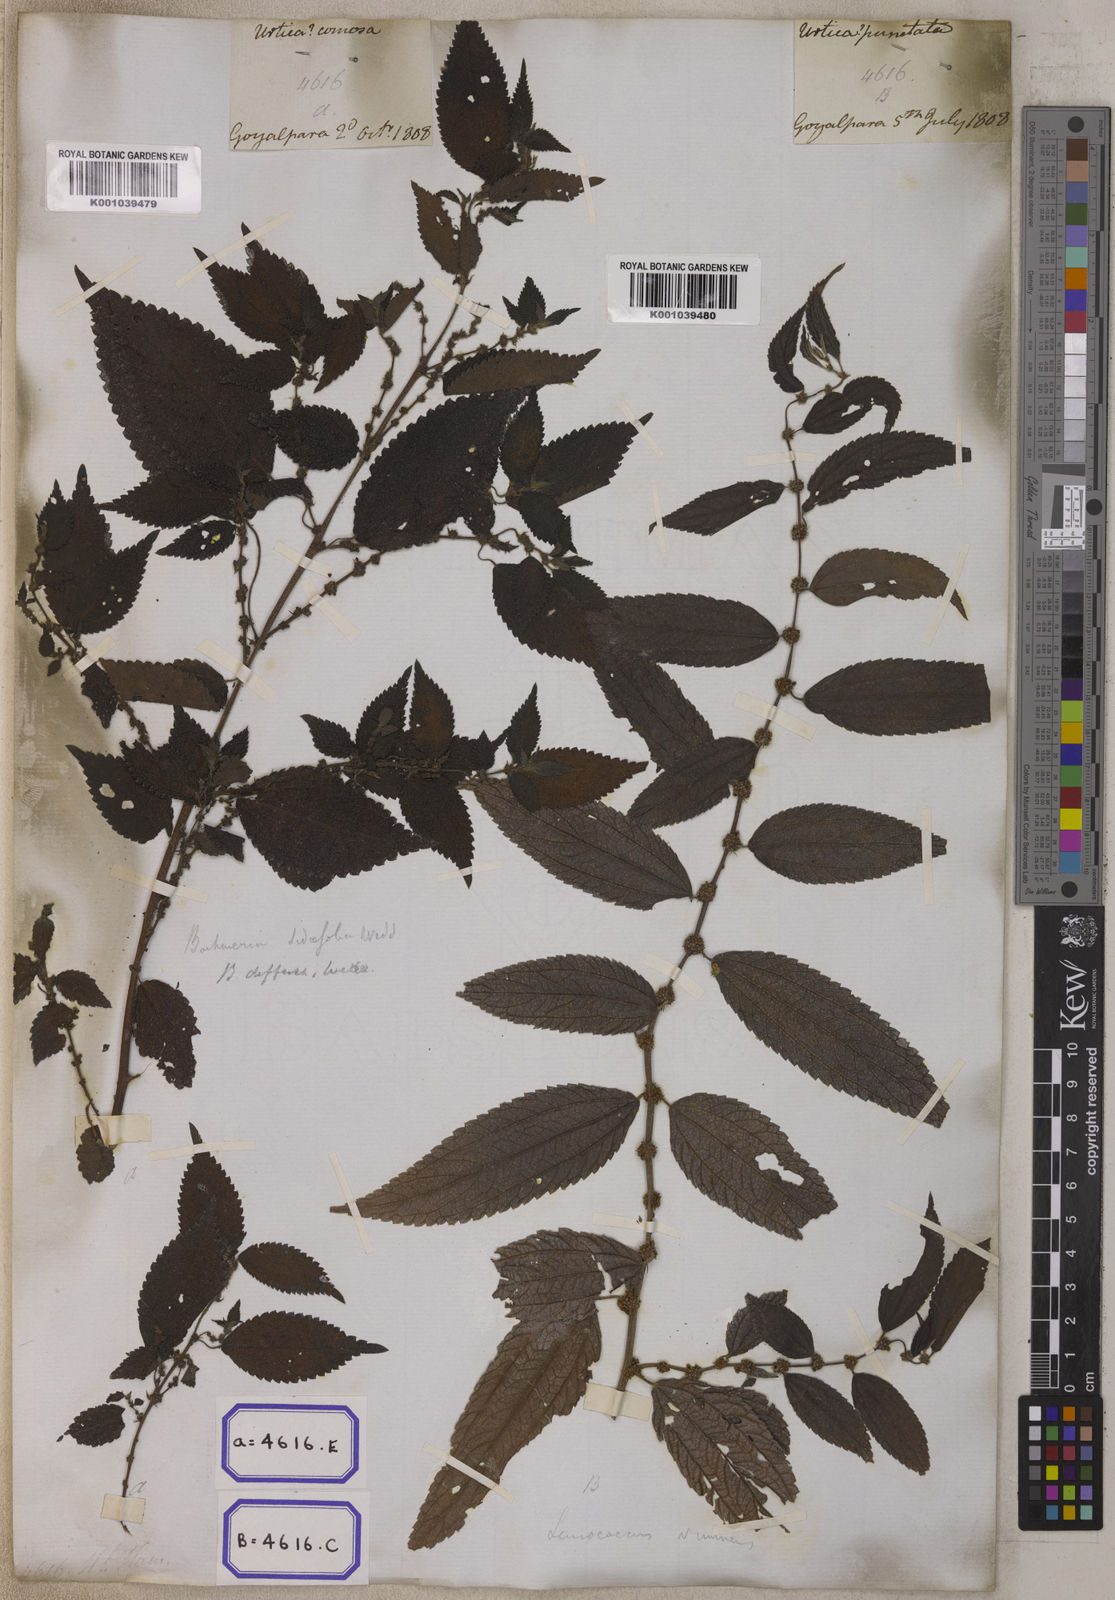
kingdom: Plantae
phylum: Tracheophyta
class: Magnoliopsida
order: Rosales
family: Urticaceae
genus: Pouzolzia
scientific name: Pouzolzia sanguinea
